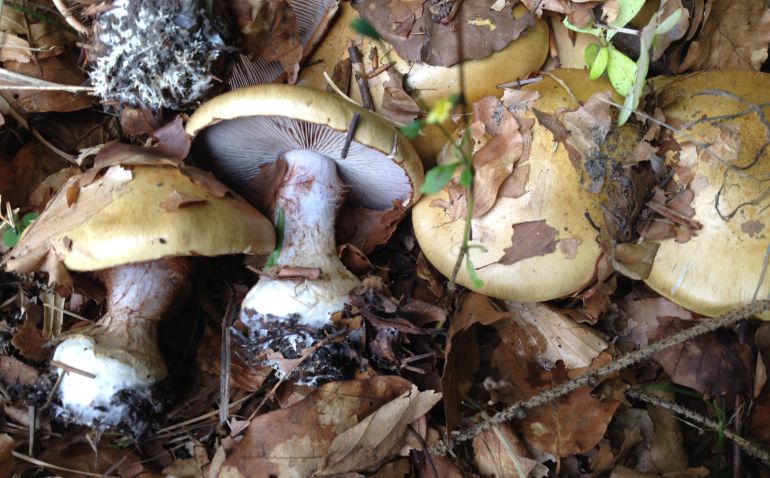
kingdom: Fungi
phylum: Basidiomycota
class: Agaricomycetes
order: Agaricales
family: Cortinariaceae
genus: Cortinarius
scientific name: Cortinarius anserinus
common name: bøge-slørhat
